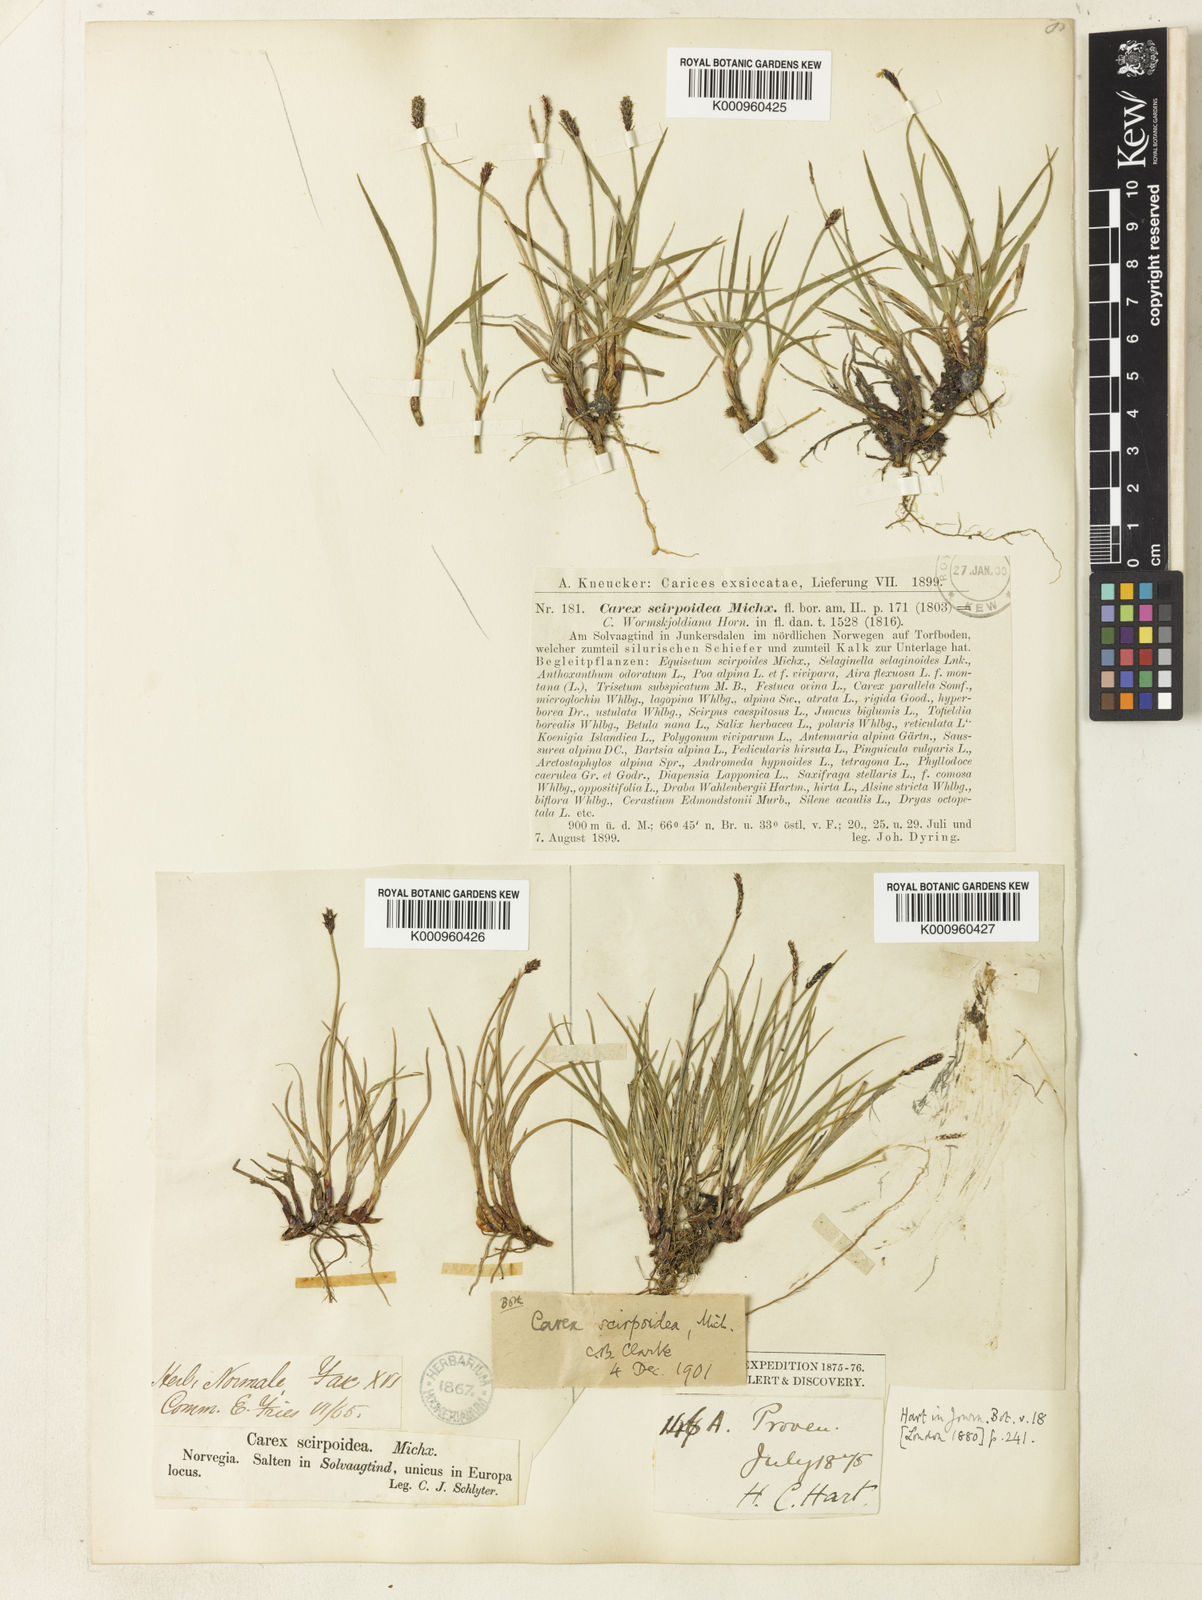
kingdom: Plantae
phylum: Tracheophyta
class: Liliopsida
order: Poales
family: Cyperaceae
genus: Carex
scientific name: Carex scirpoidea
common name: Canada single-spike sedge
